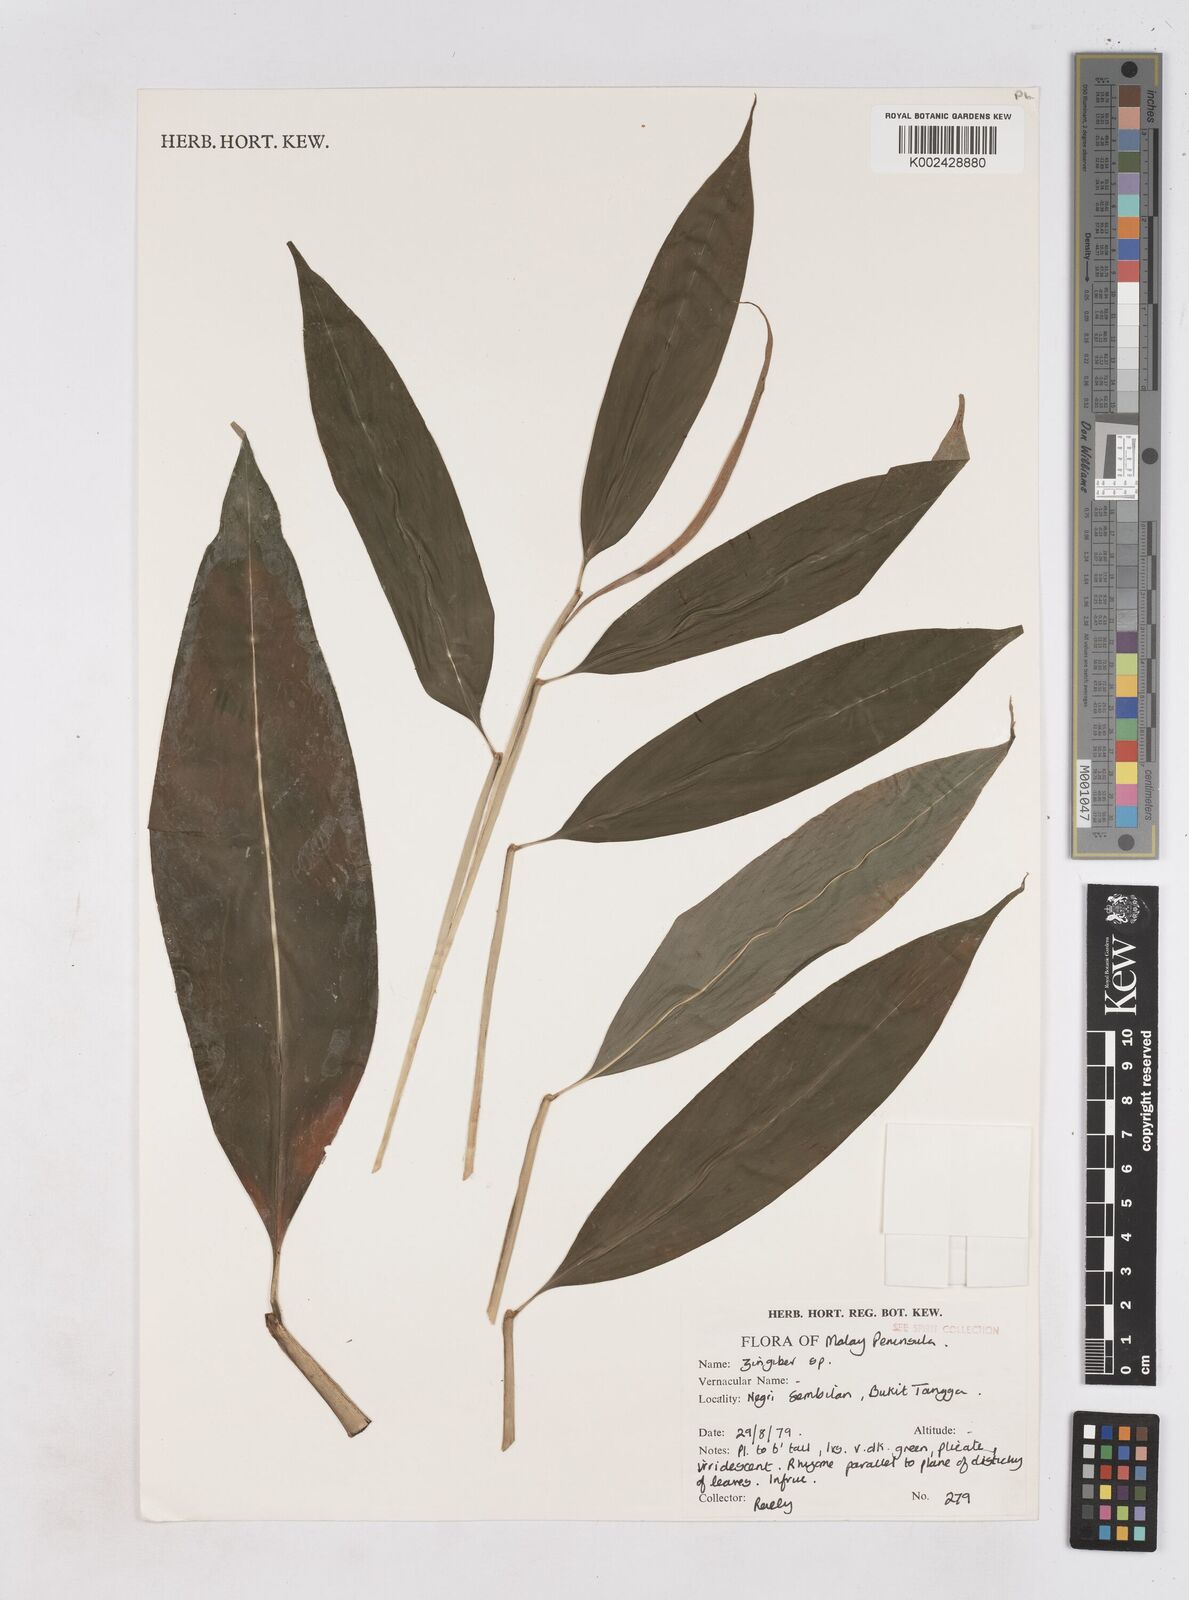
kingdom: Plantae
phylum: Tracheophyta
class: Liliopsida
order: Zingiberales
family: Zingiberaceae
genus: Zingiber
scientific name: Zingiber
